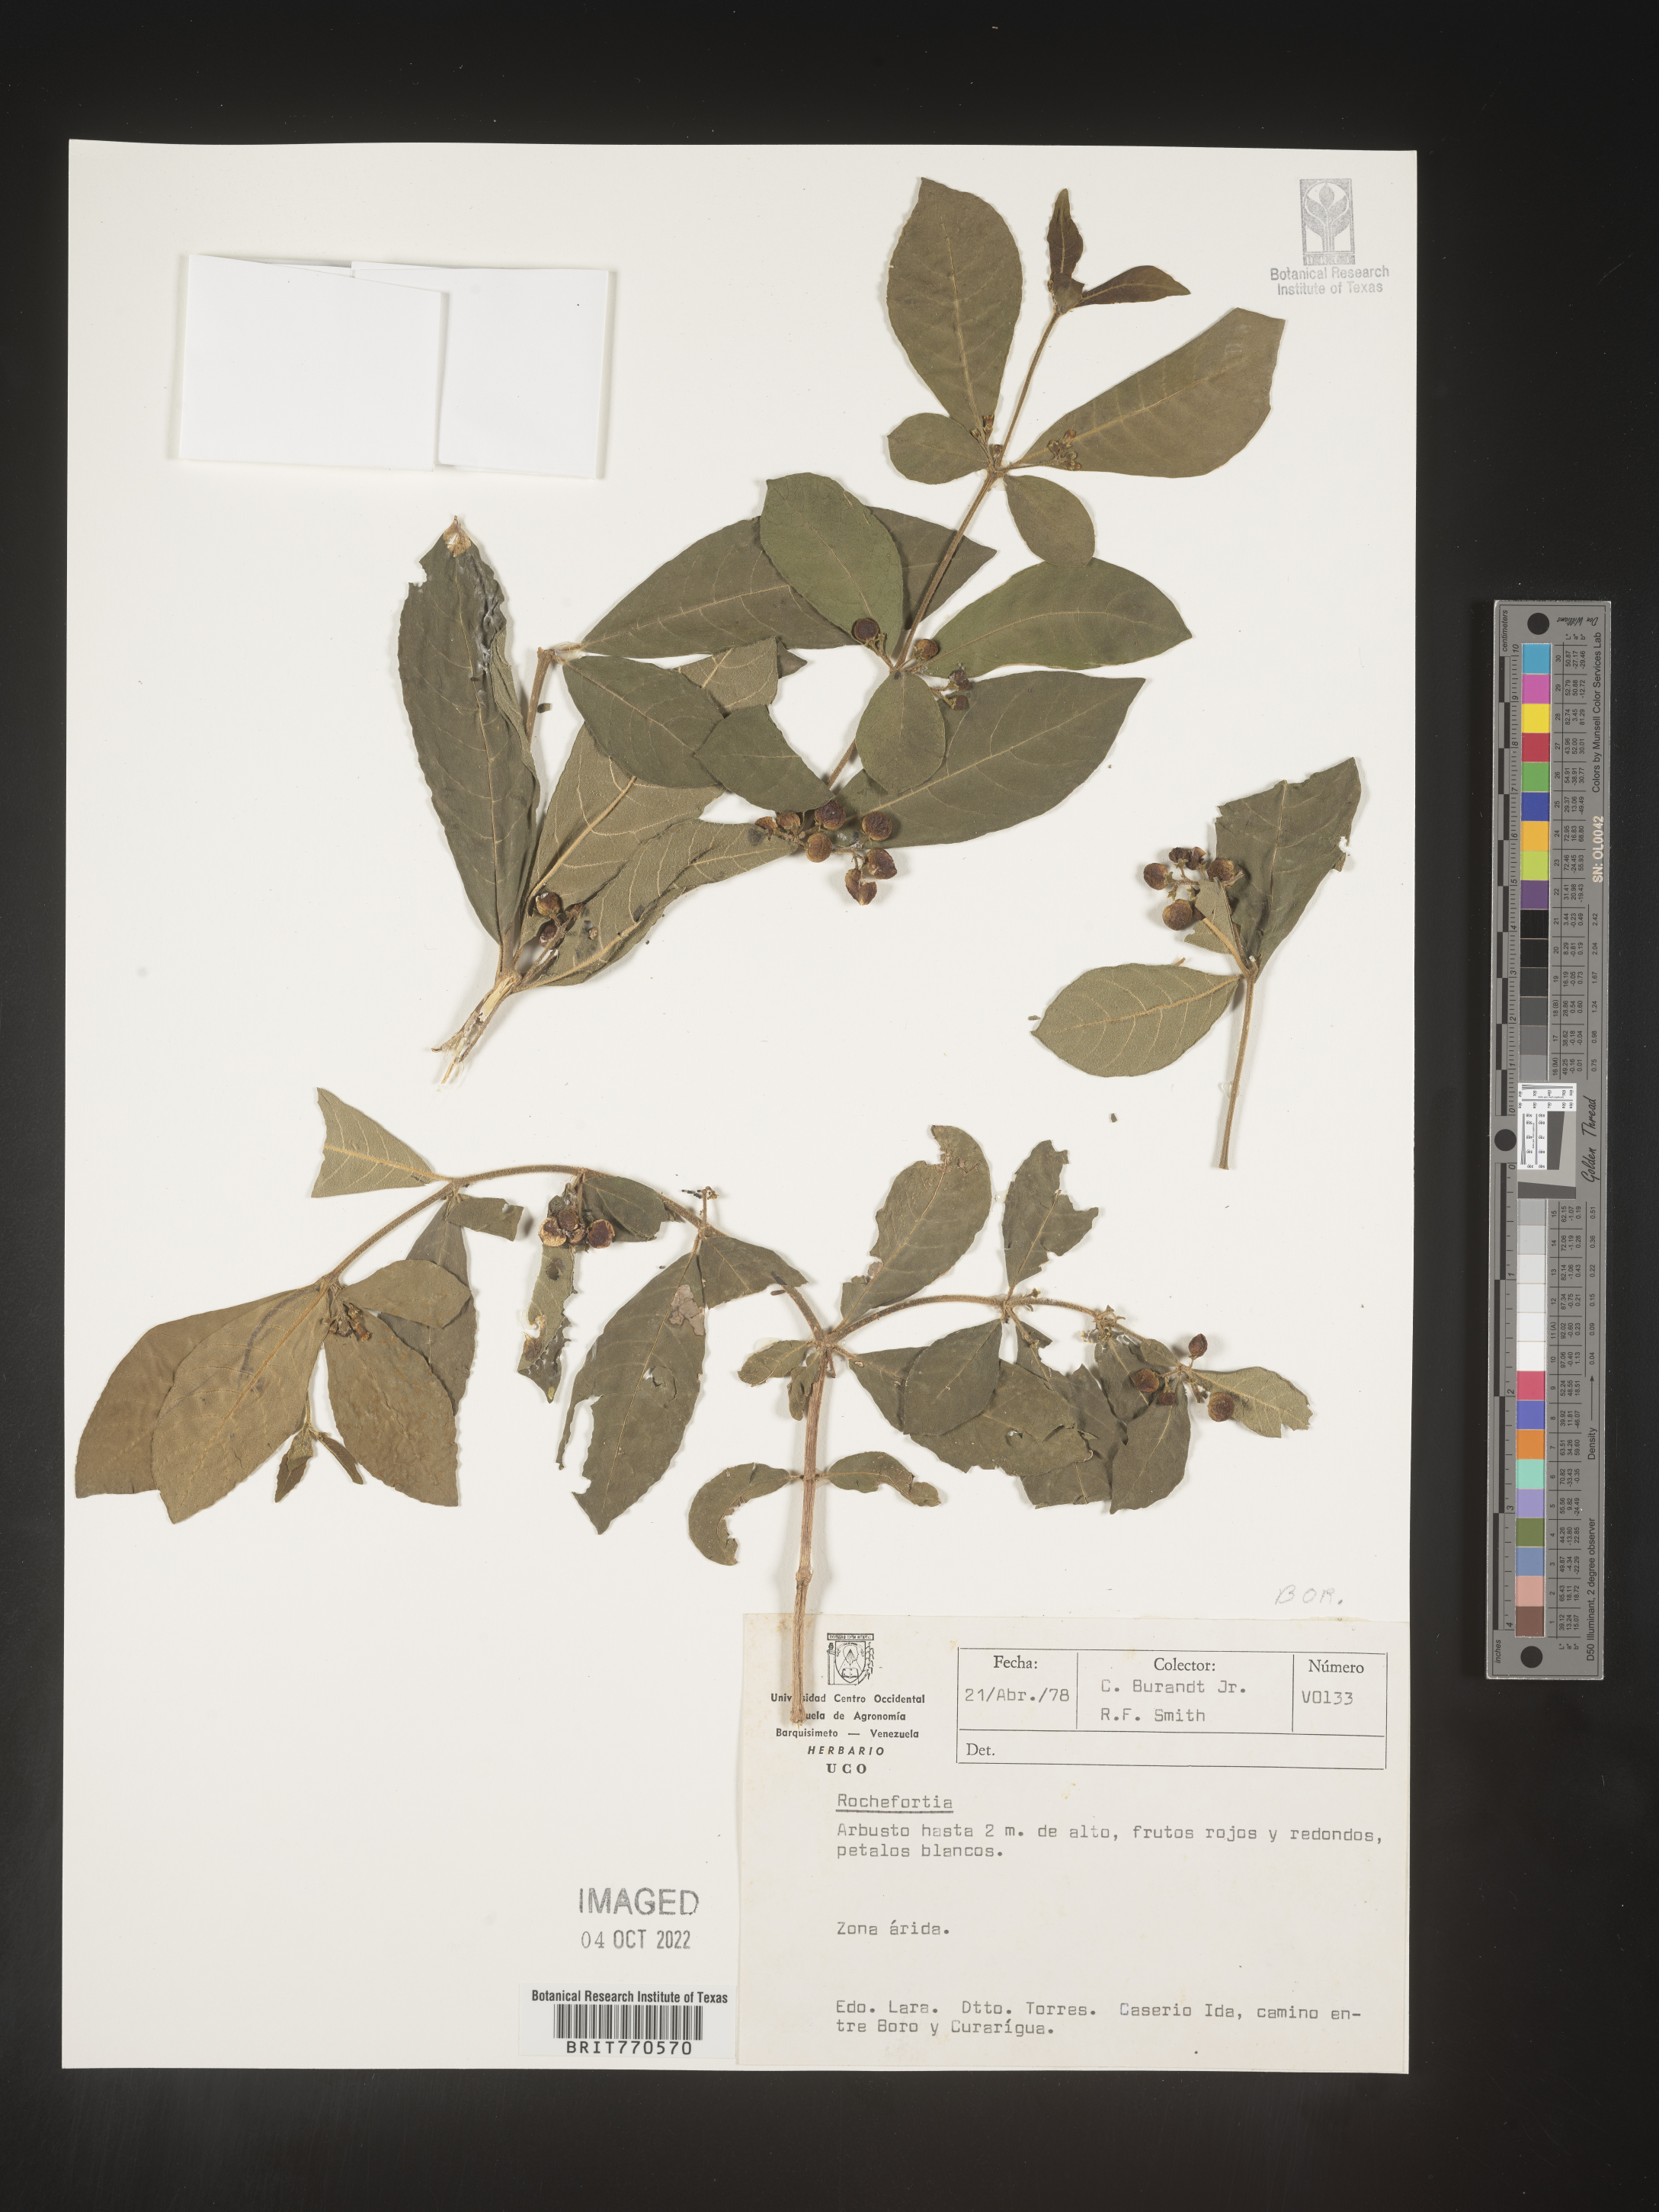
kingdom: Plantae
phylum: Tracheophyta
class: Magnoliopsida
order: Boraginales
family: Ehretiaceae
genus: Rochefortia
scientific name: Rochefortia
